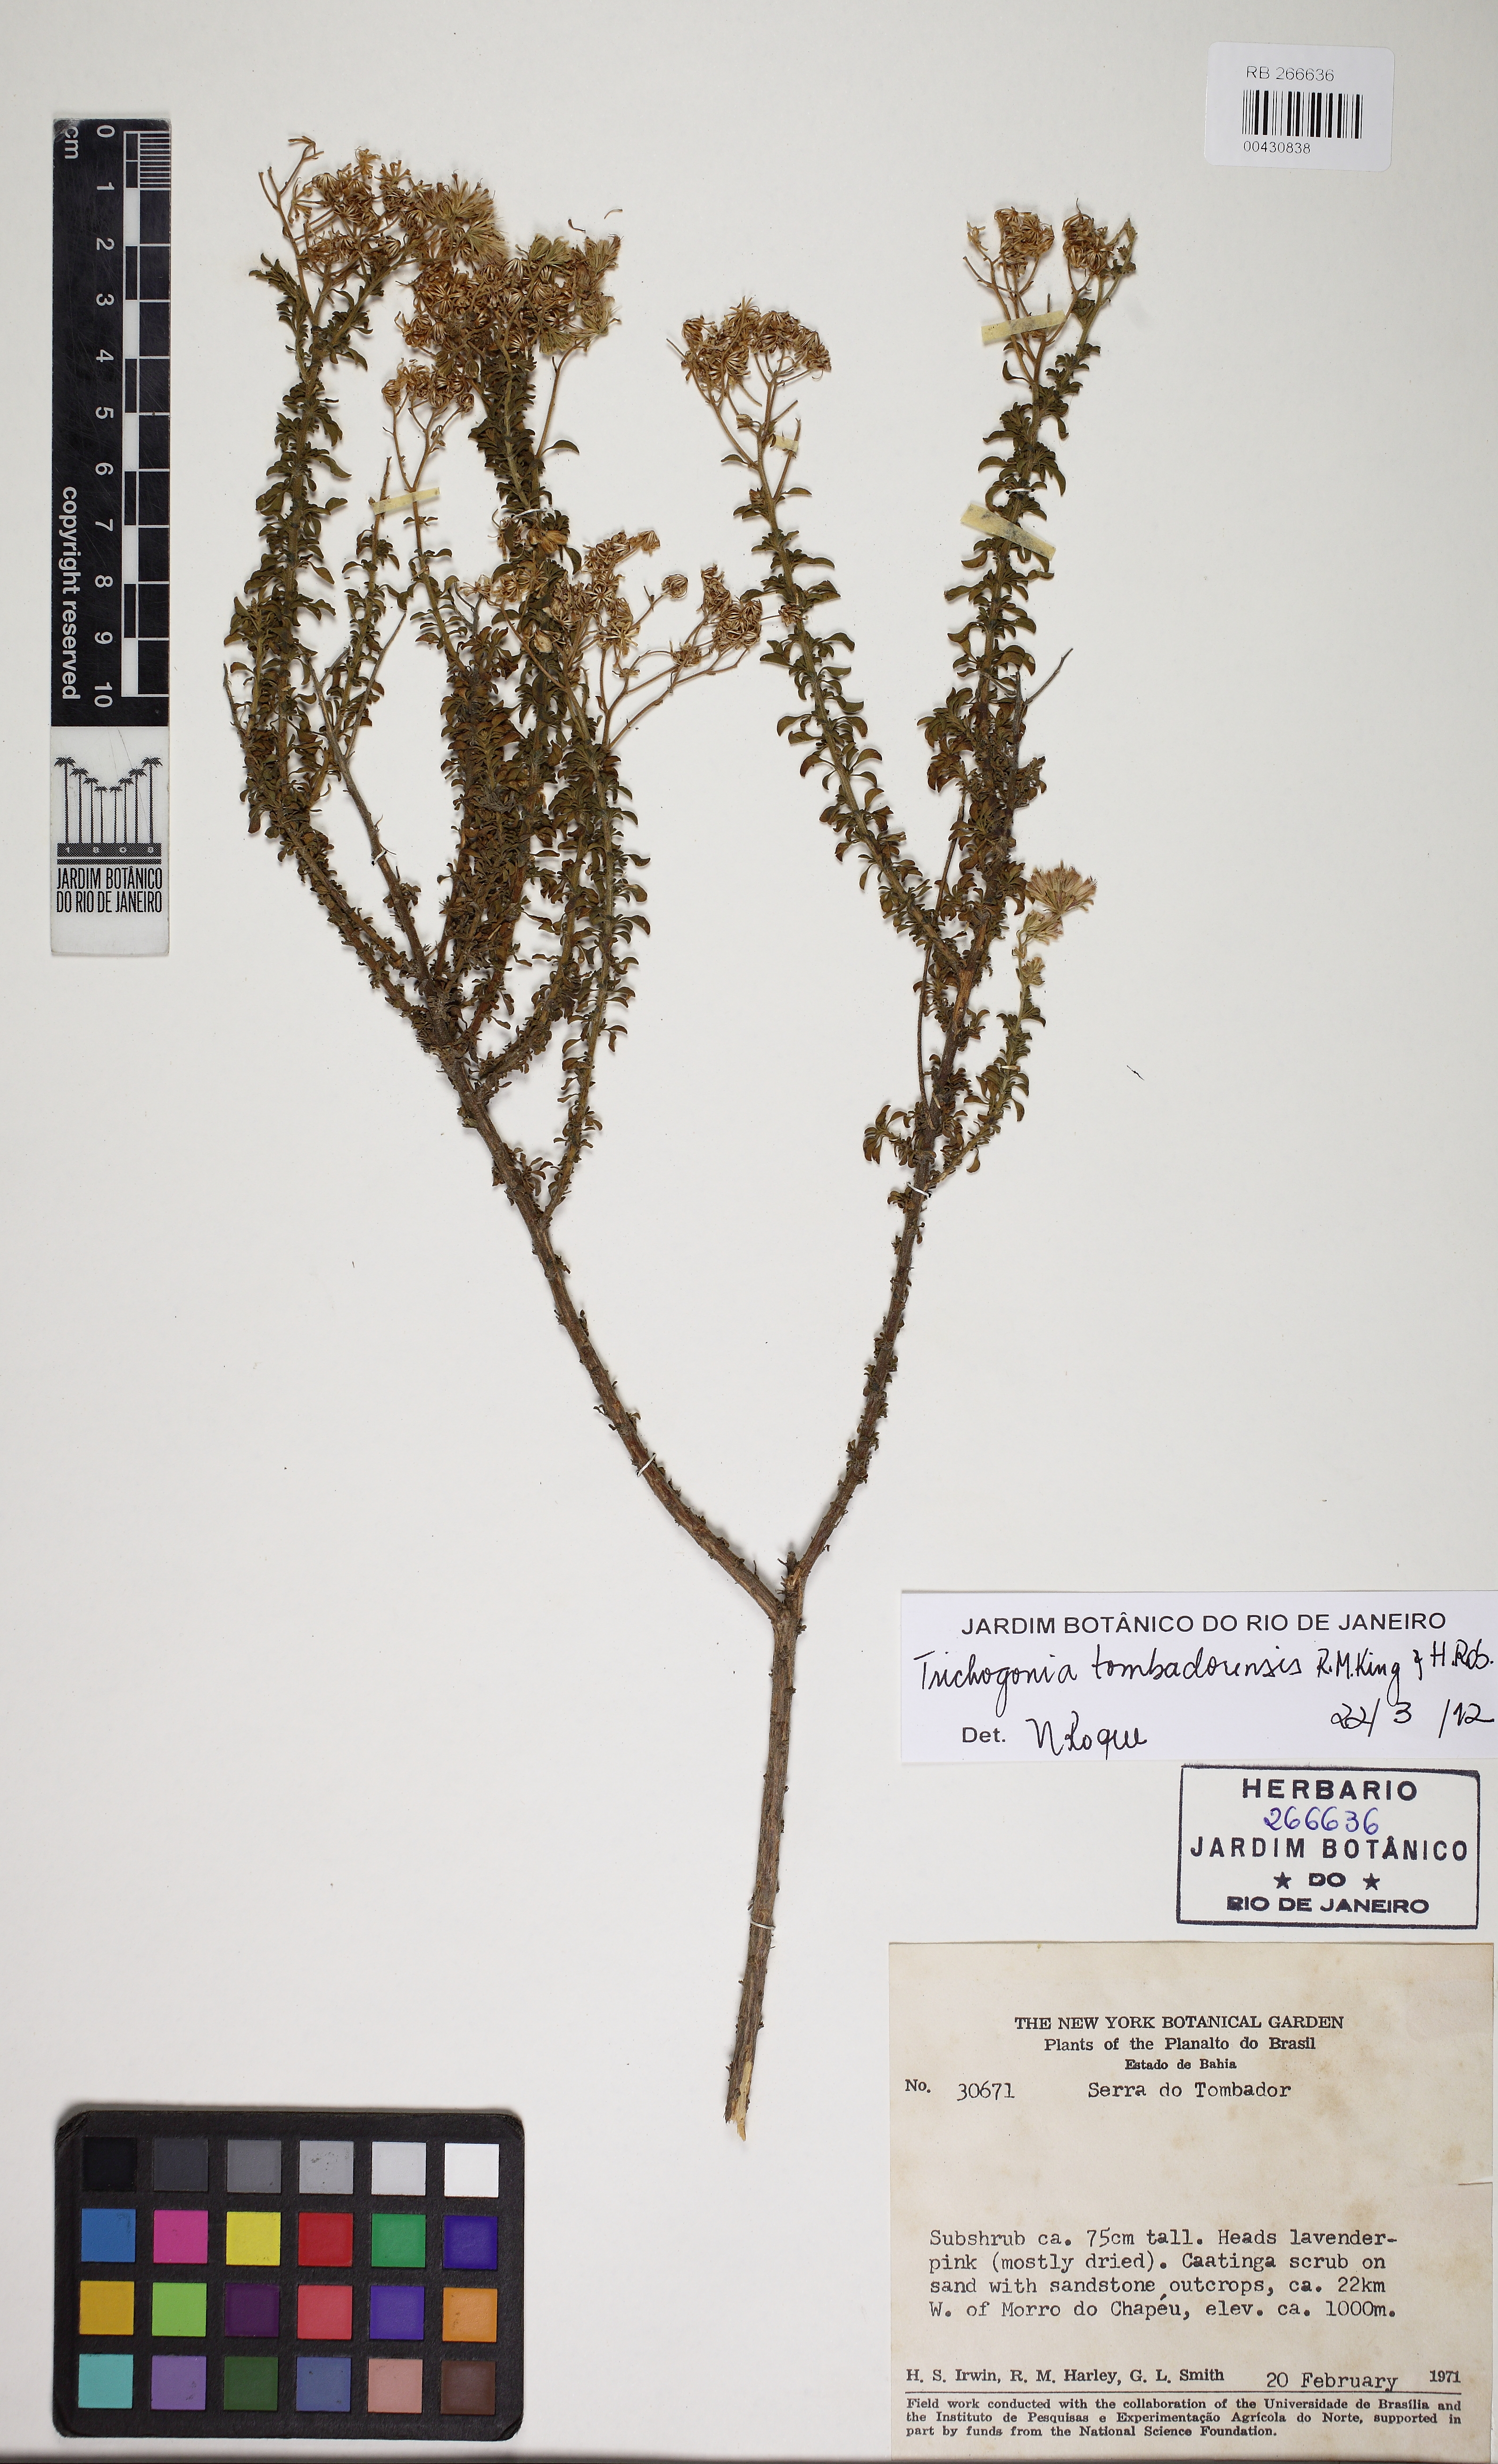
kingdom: Plantae
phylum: Tracheophyta
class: Magnoliopsida
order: Asterales
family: Asteraceae
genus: Trichogonia
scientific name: Trichogonia tombadorensis
